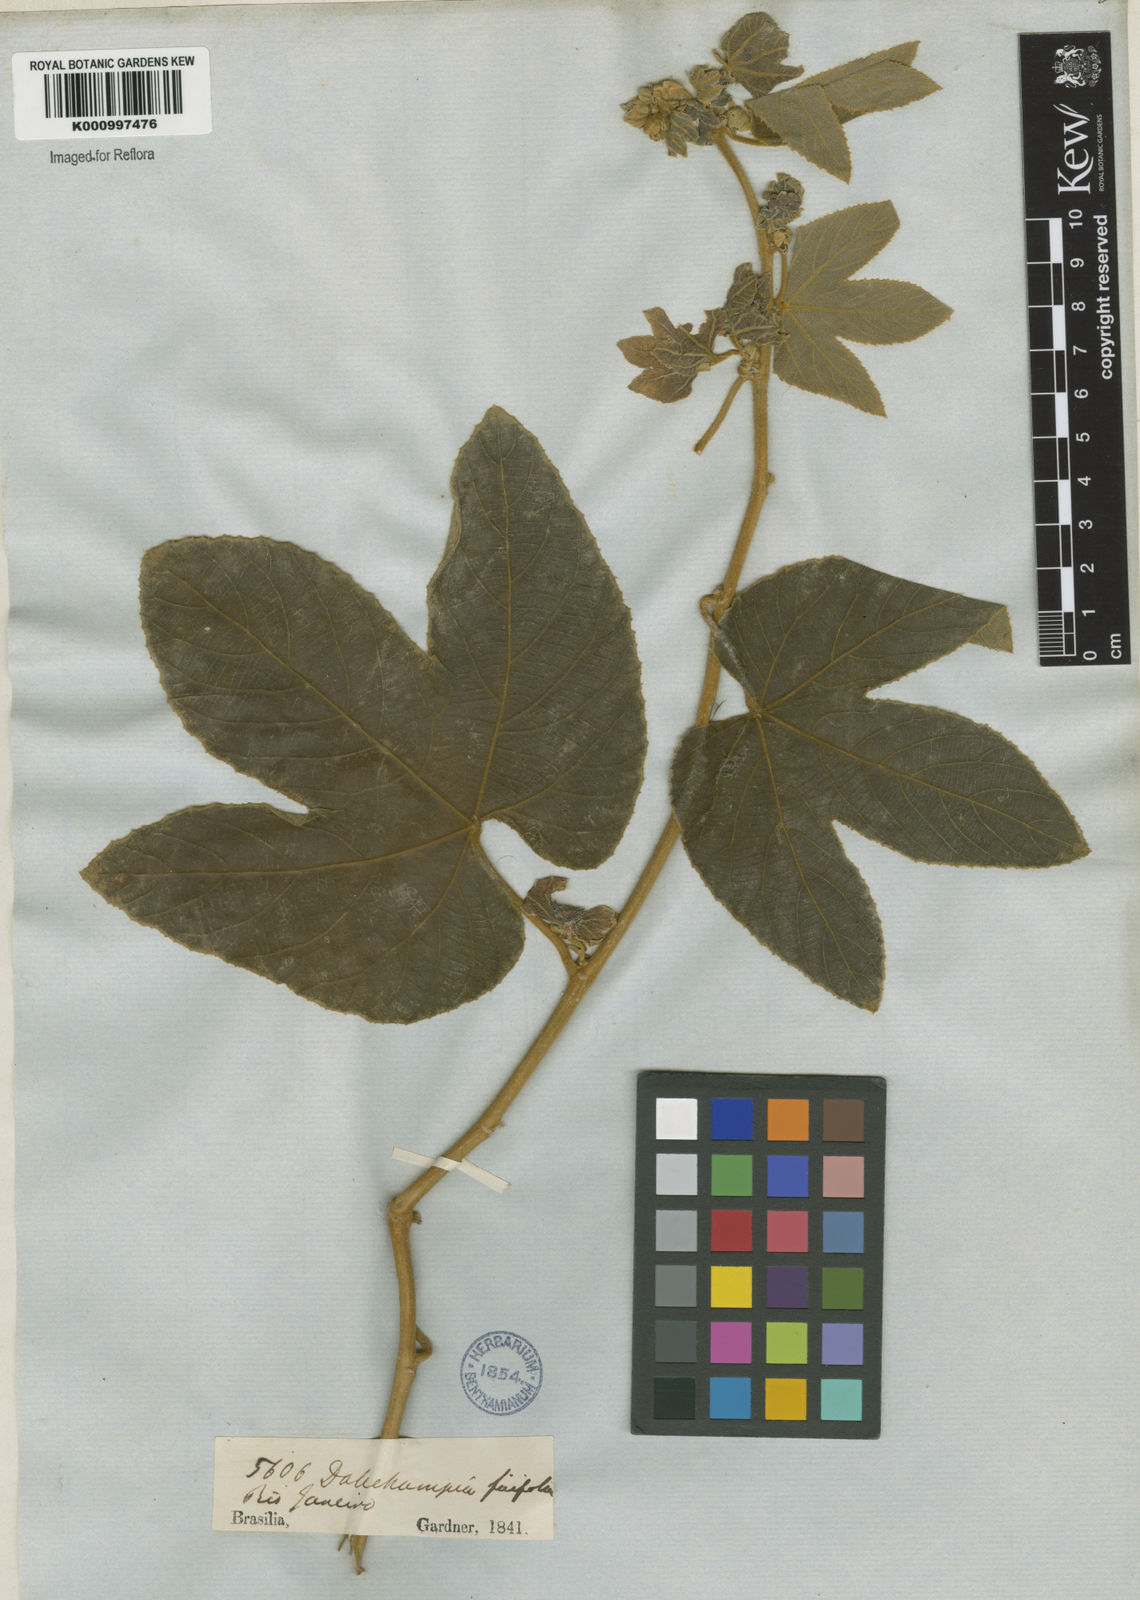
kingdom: Plantae
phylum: Tracheophyta
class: Magnoliopsida
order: Malpighiales
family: Euphorbiaceae
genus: Dalechampia
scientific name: Dalechampia ficifolia
